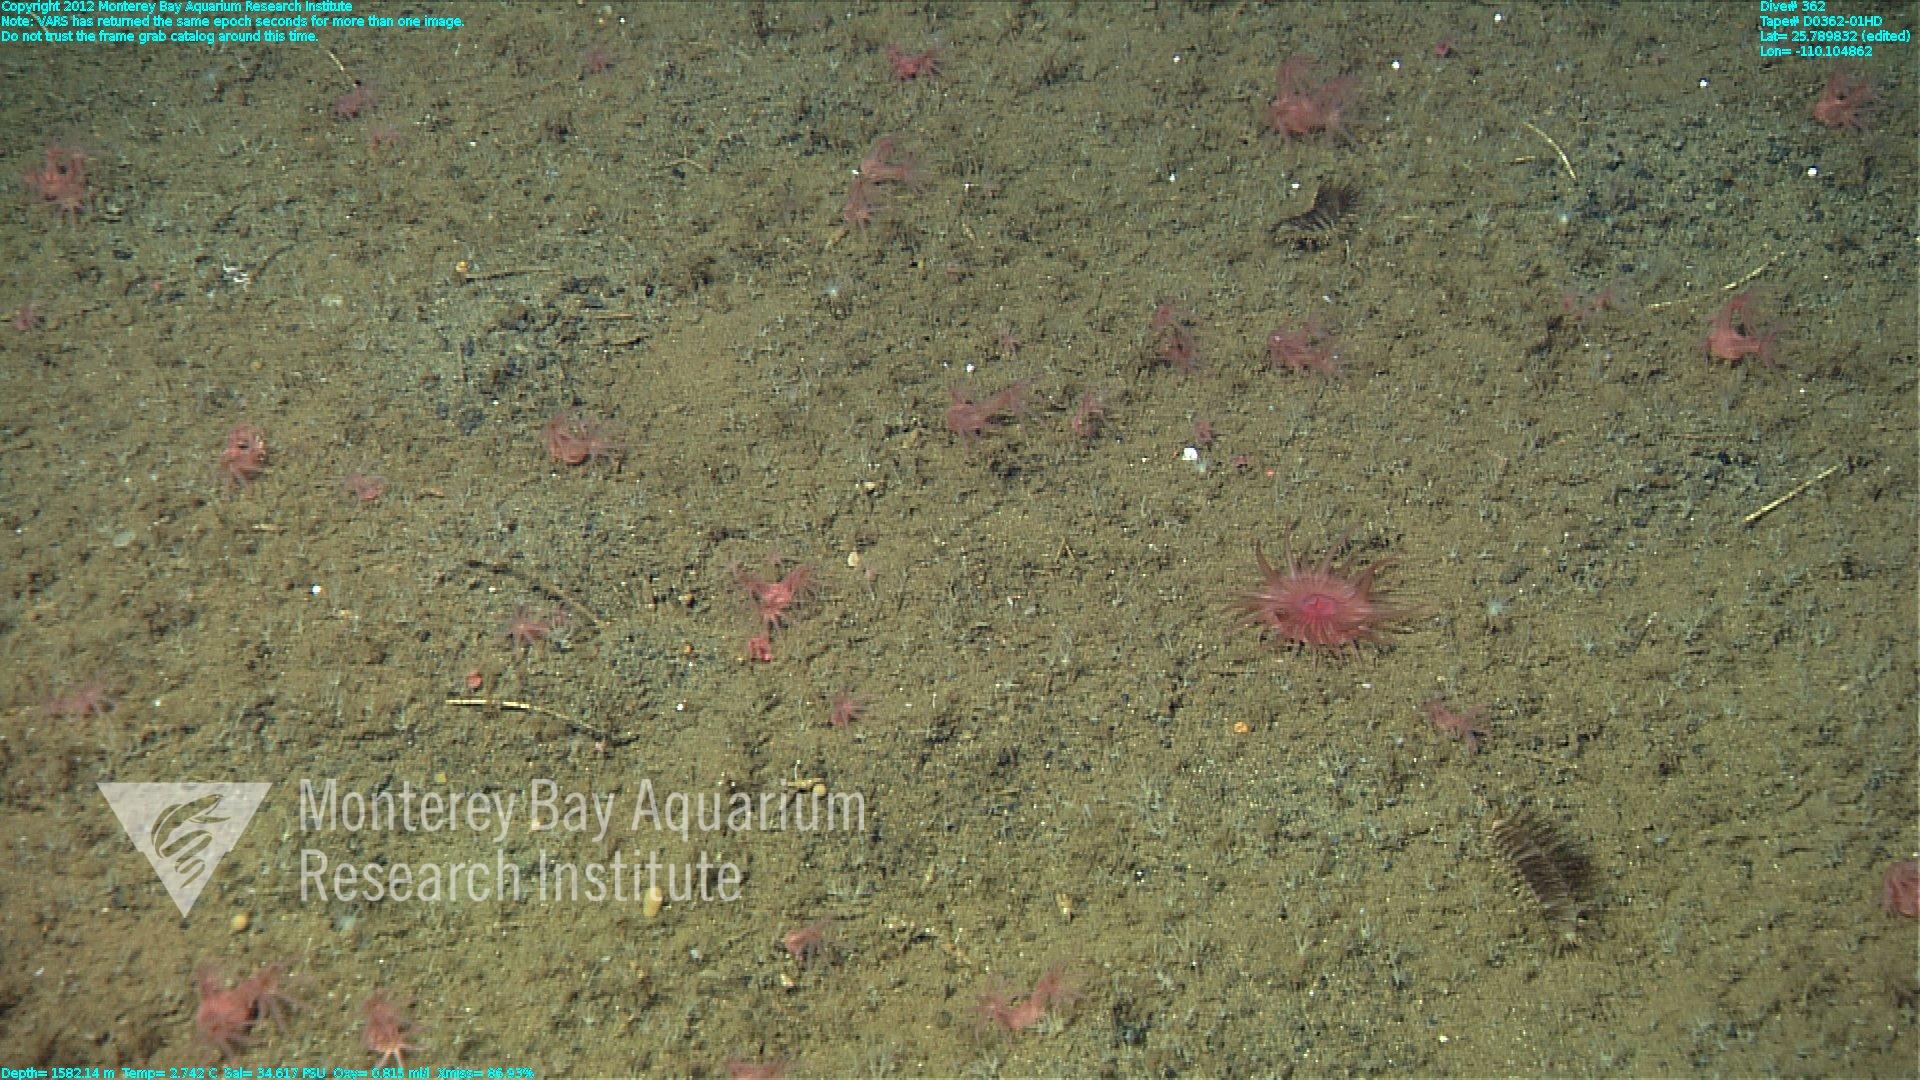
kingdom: Animalia
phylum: Cnidaria
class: Anthozoa
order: Scleralcyonacea
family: Coralliidae
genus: Heteropolypus
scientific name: Heteropolypus
